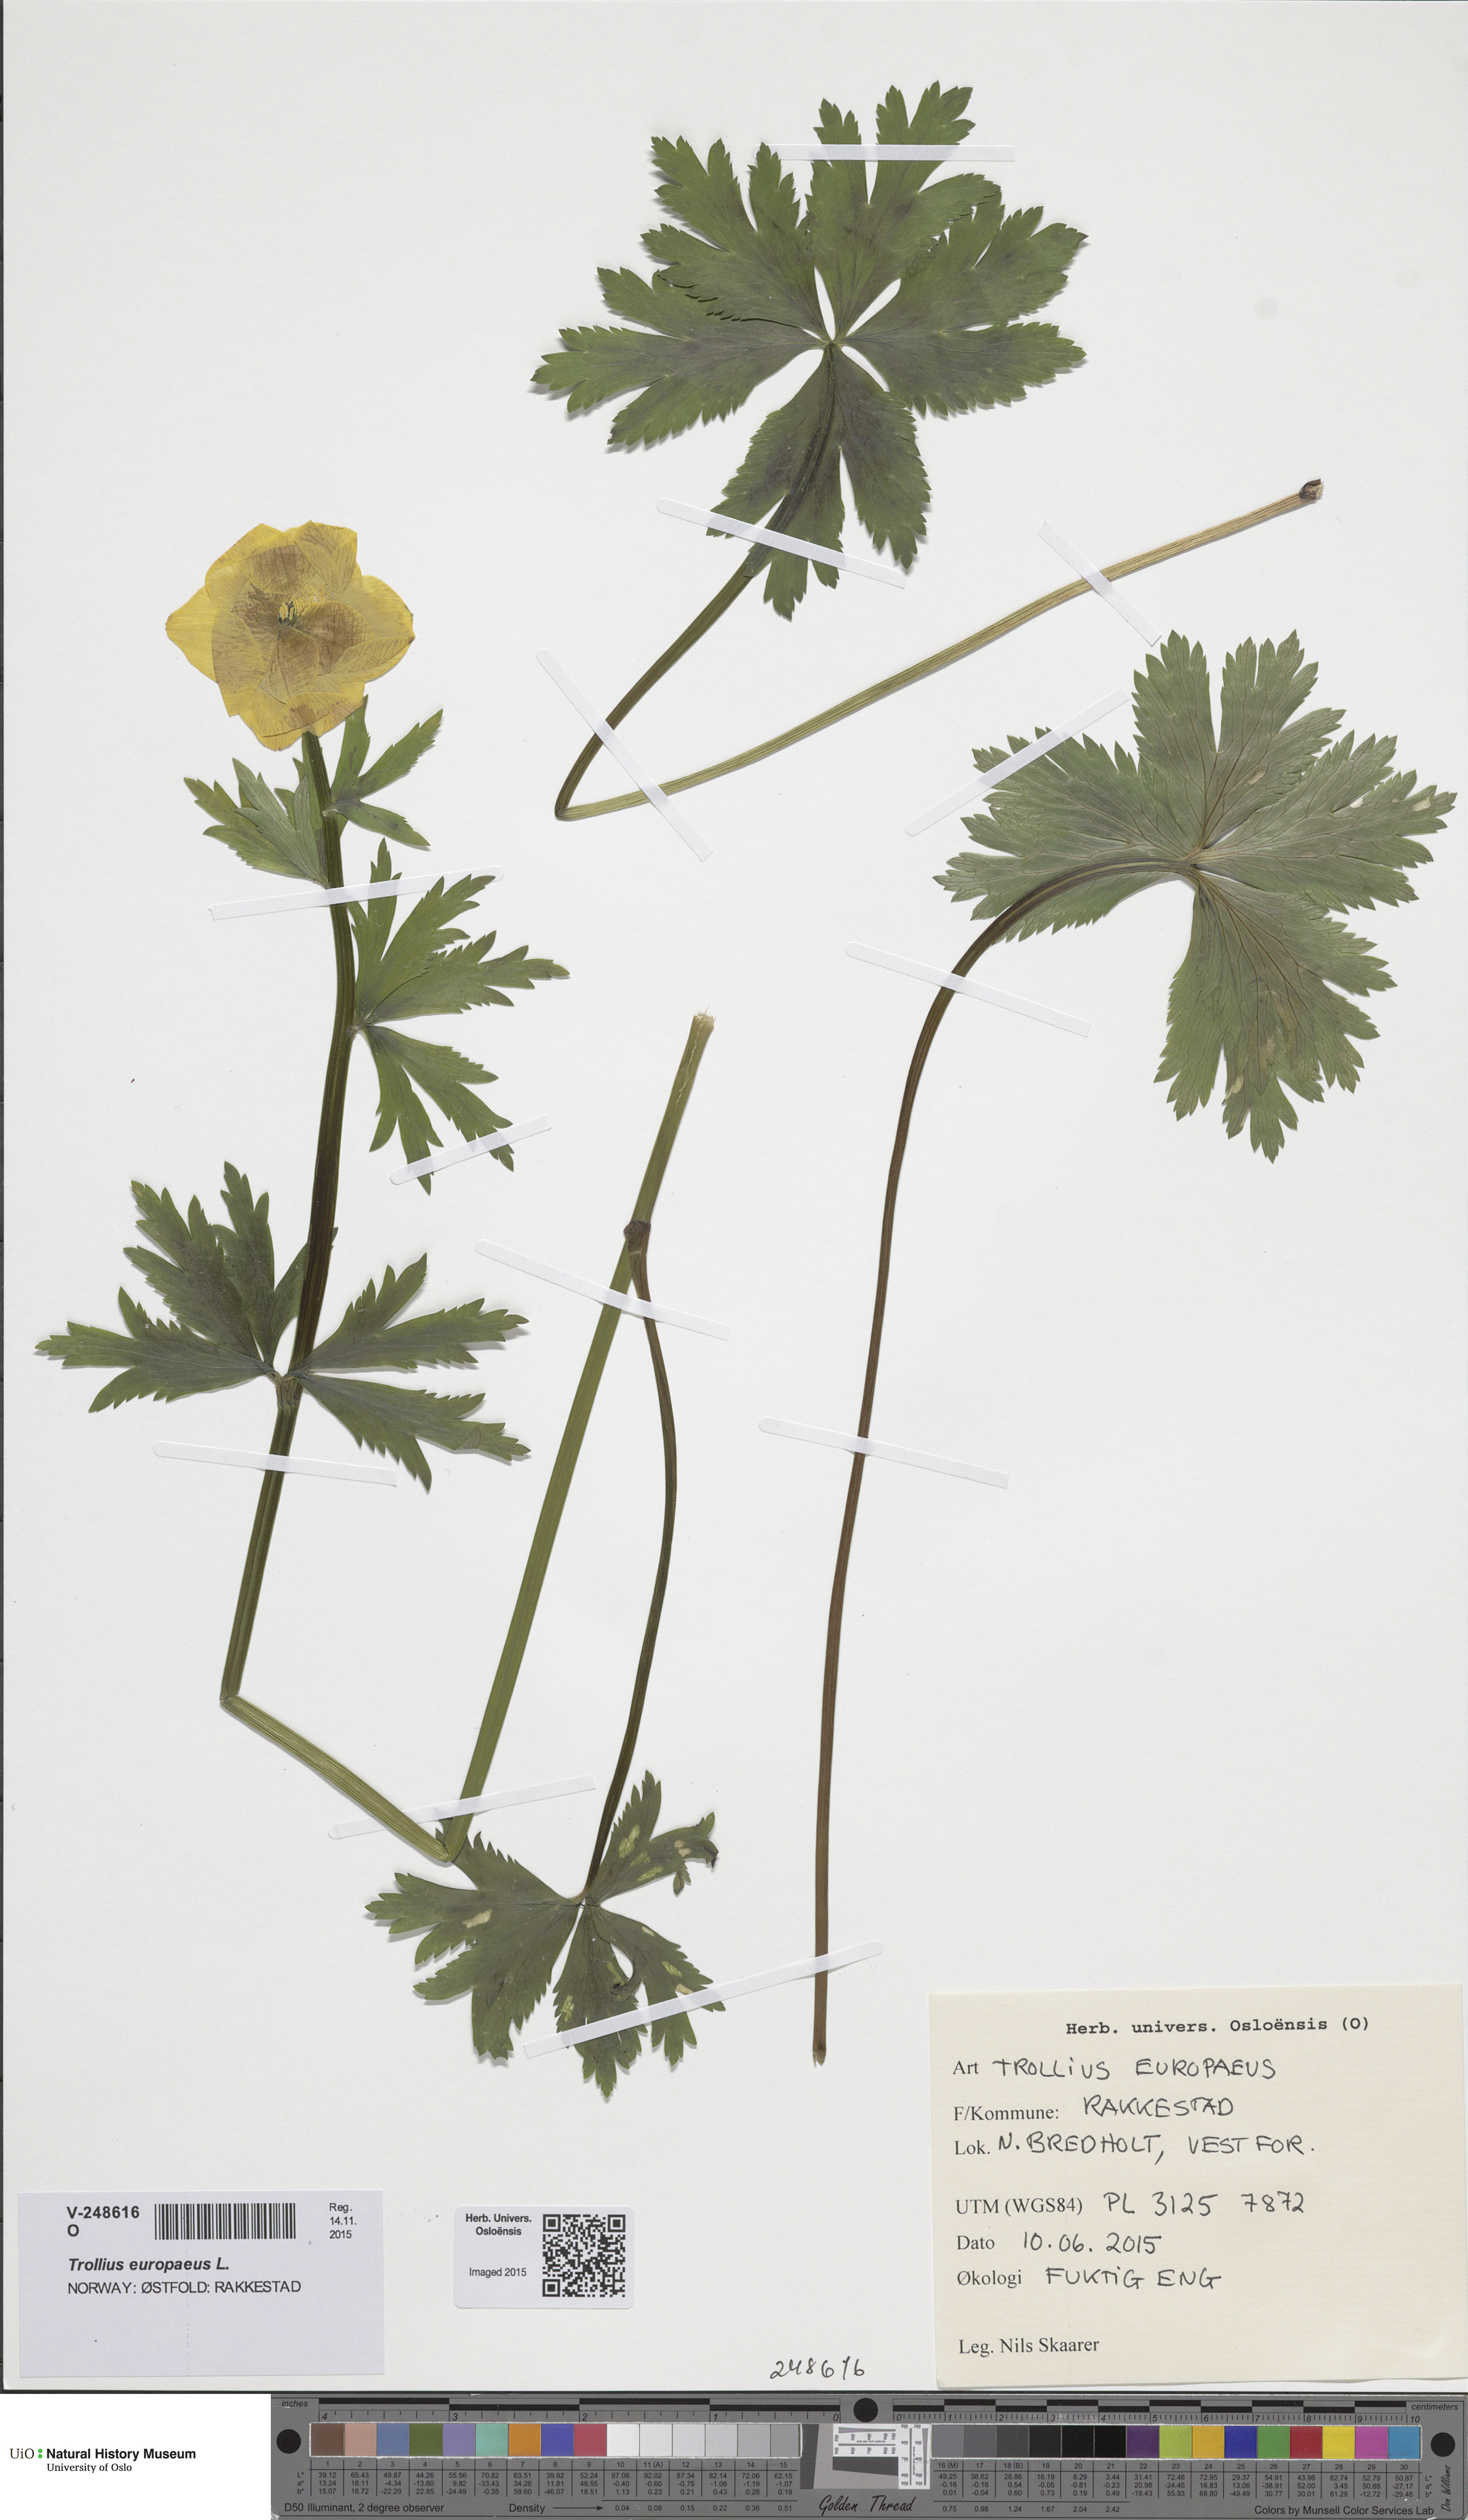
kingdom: Plantae
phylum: Tracheophyta
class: Magnoliopsida
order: Ranunculales
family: Ranunculaceae
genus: Trollius
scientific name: Trollius europaeus
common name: European globeflower
